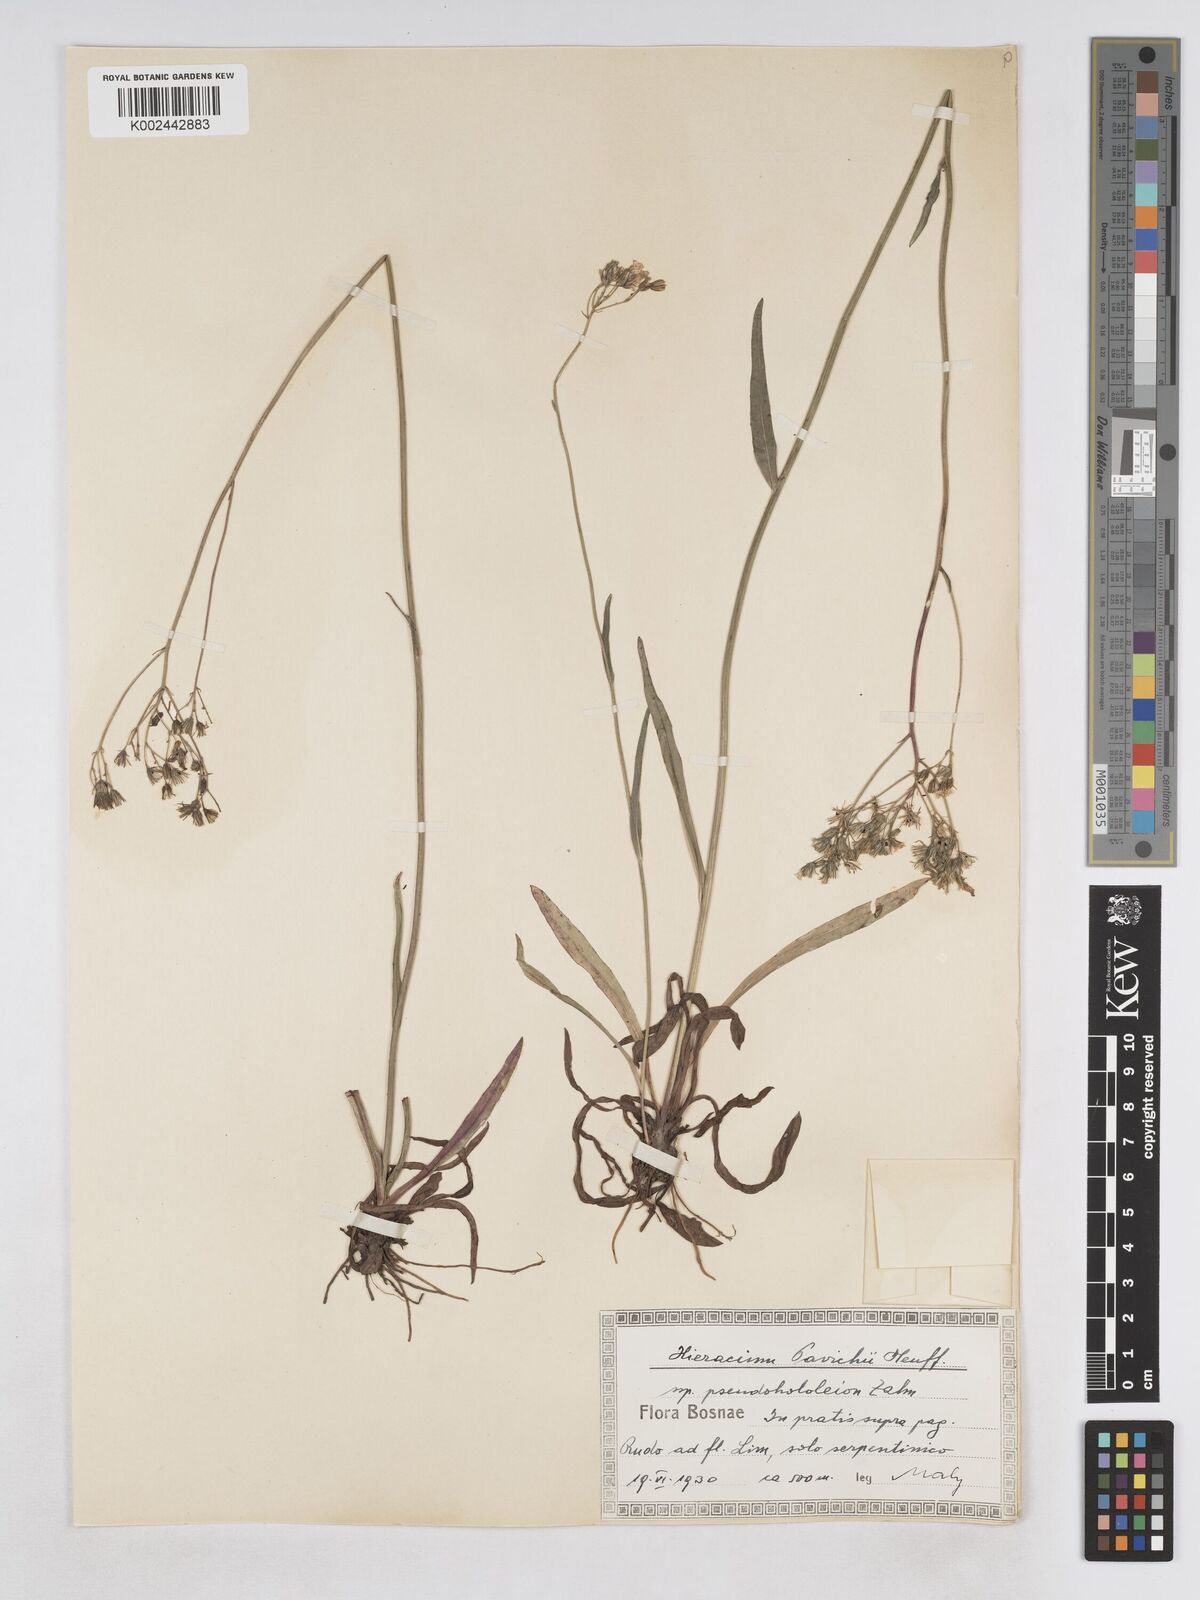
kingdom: Plantae
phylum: Tracheophyta
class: Magnoliopsida
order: Asterales
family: Asteraceae
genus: Pilosella
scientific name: Pilosella pavichii
